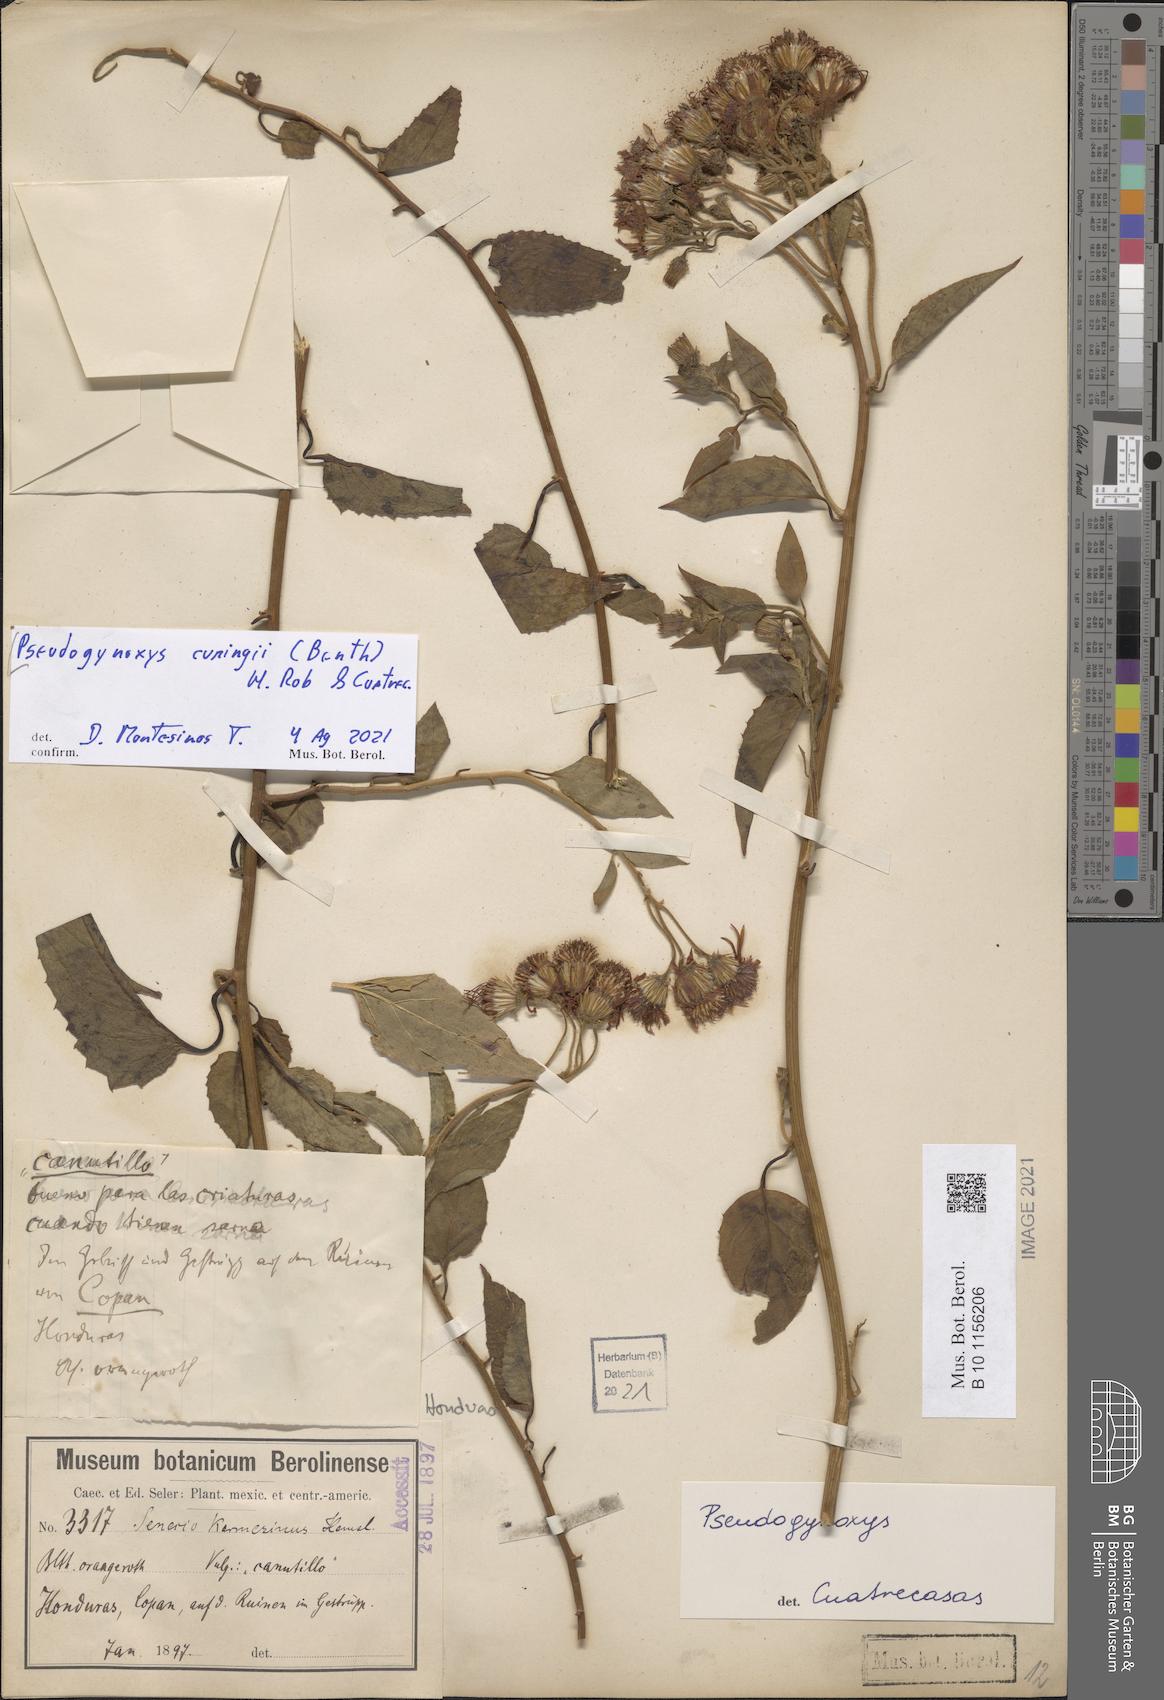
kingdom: Plantae
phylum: Tracheophyta
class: Magnoliopsida
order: Asterales
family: Asteraceae
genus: Pseudogynoxys
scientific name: Pseudogynoxys cumingii
